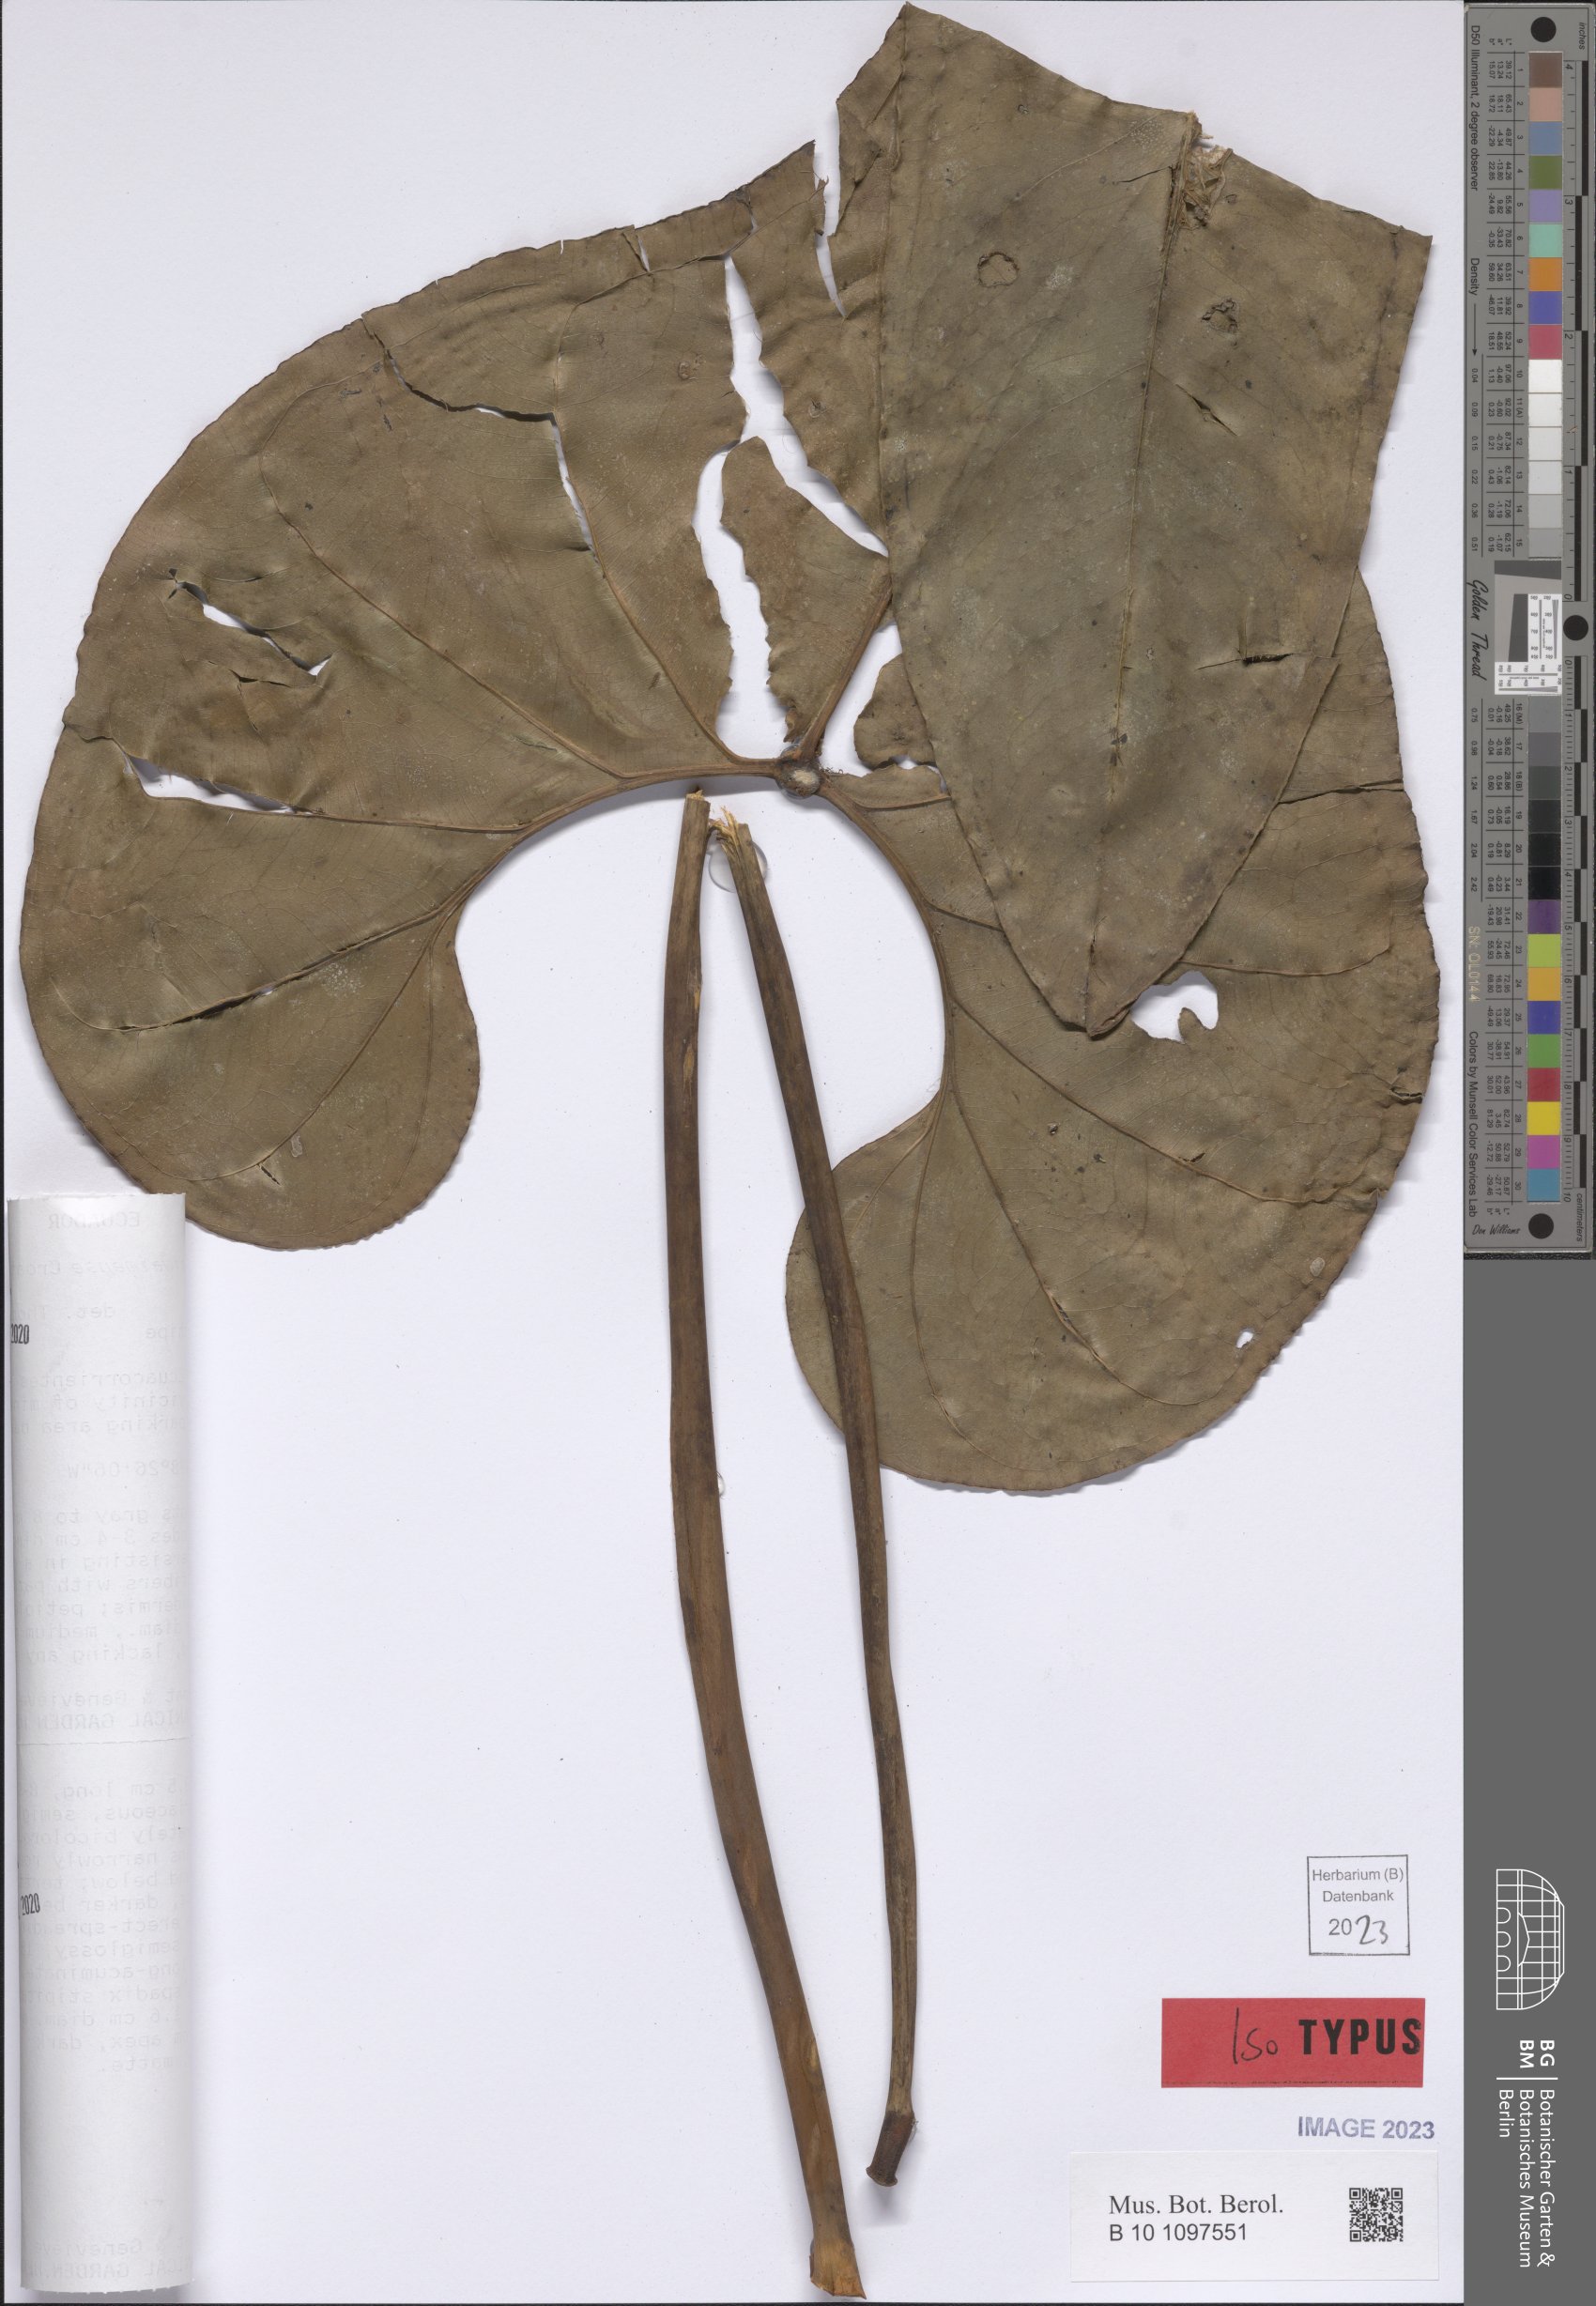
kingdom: Plantae
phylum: Tracheophyta
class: Liliopsida
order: Alismatales
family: Araceae
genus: Anthurium
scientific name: Anthurium waiwaimense
